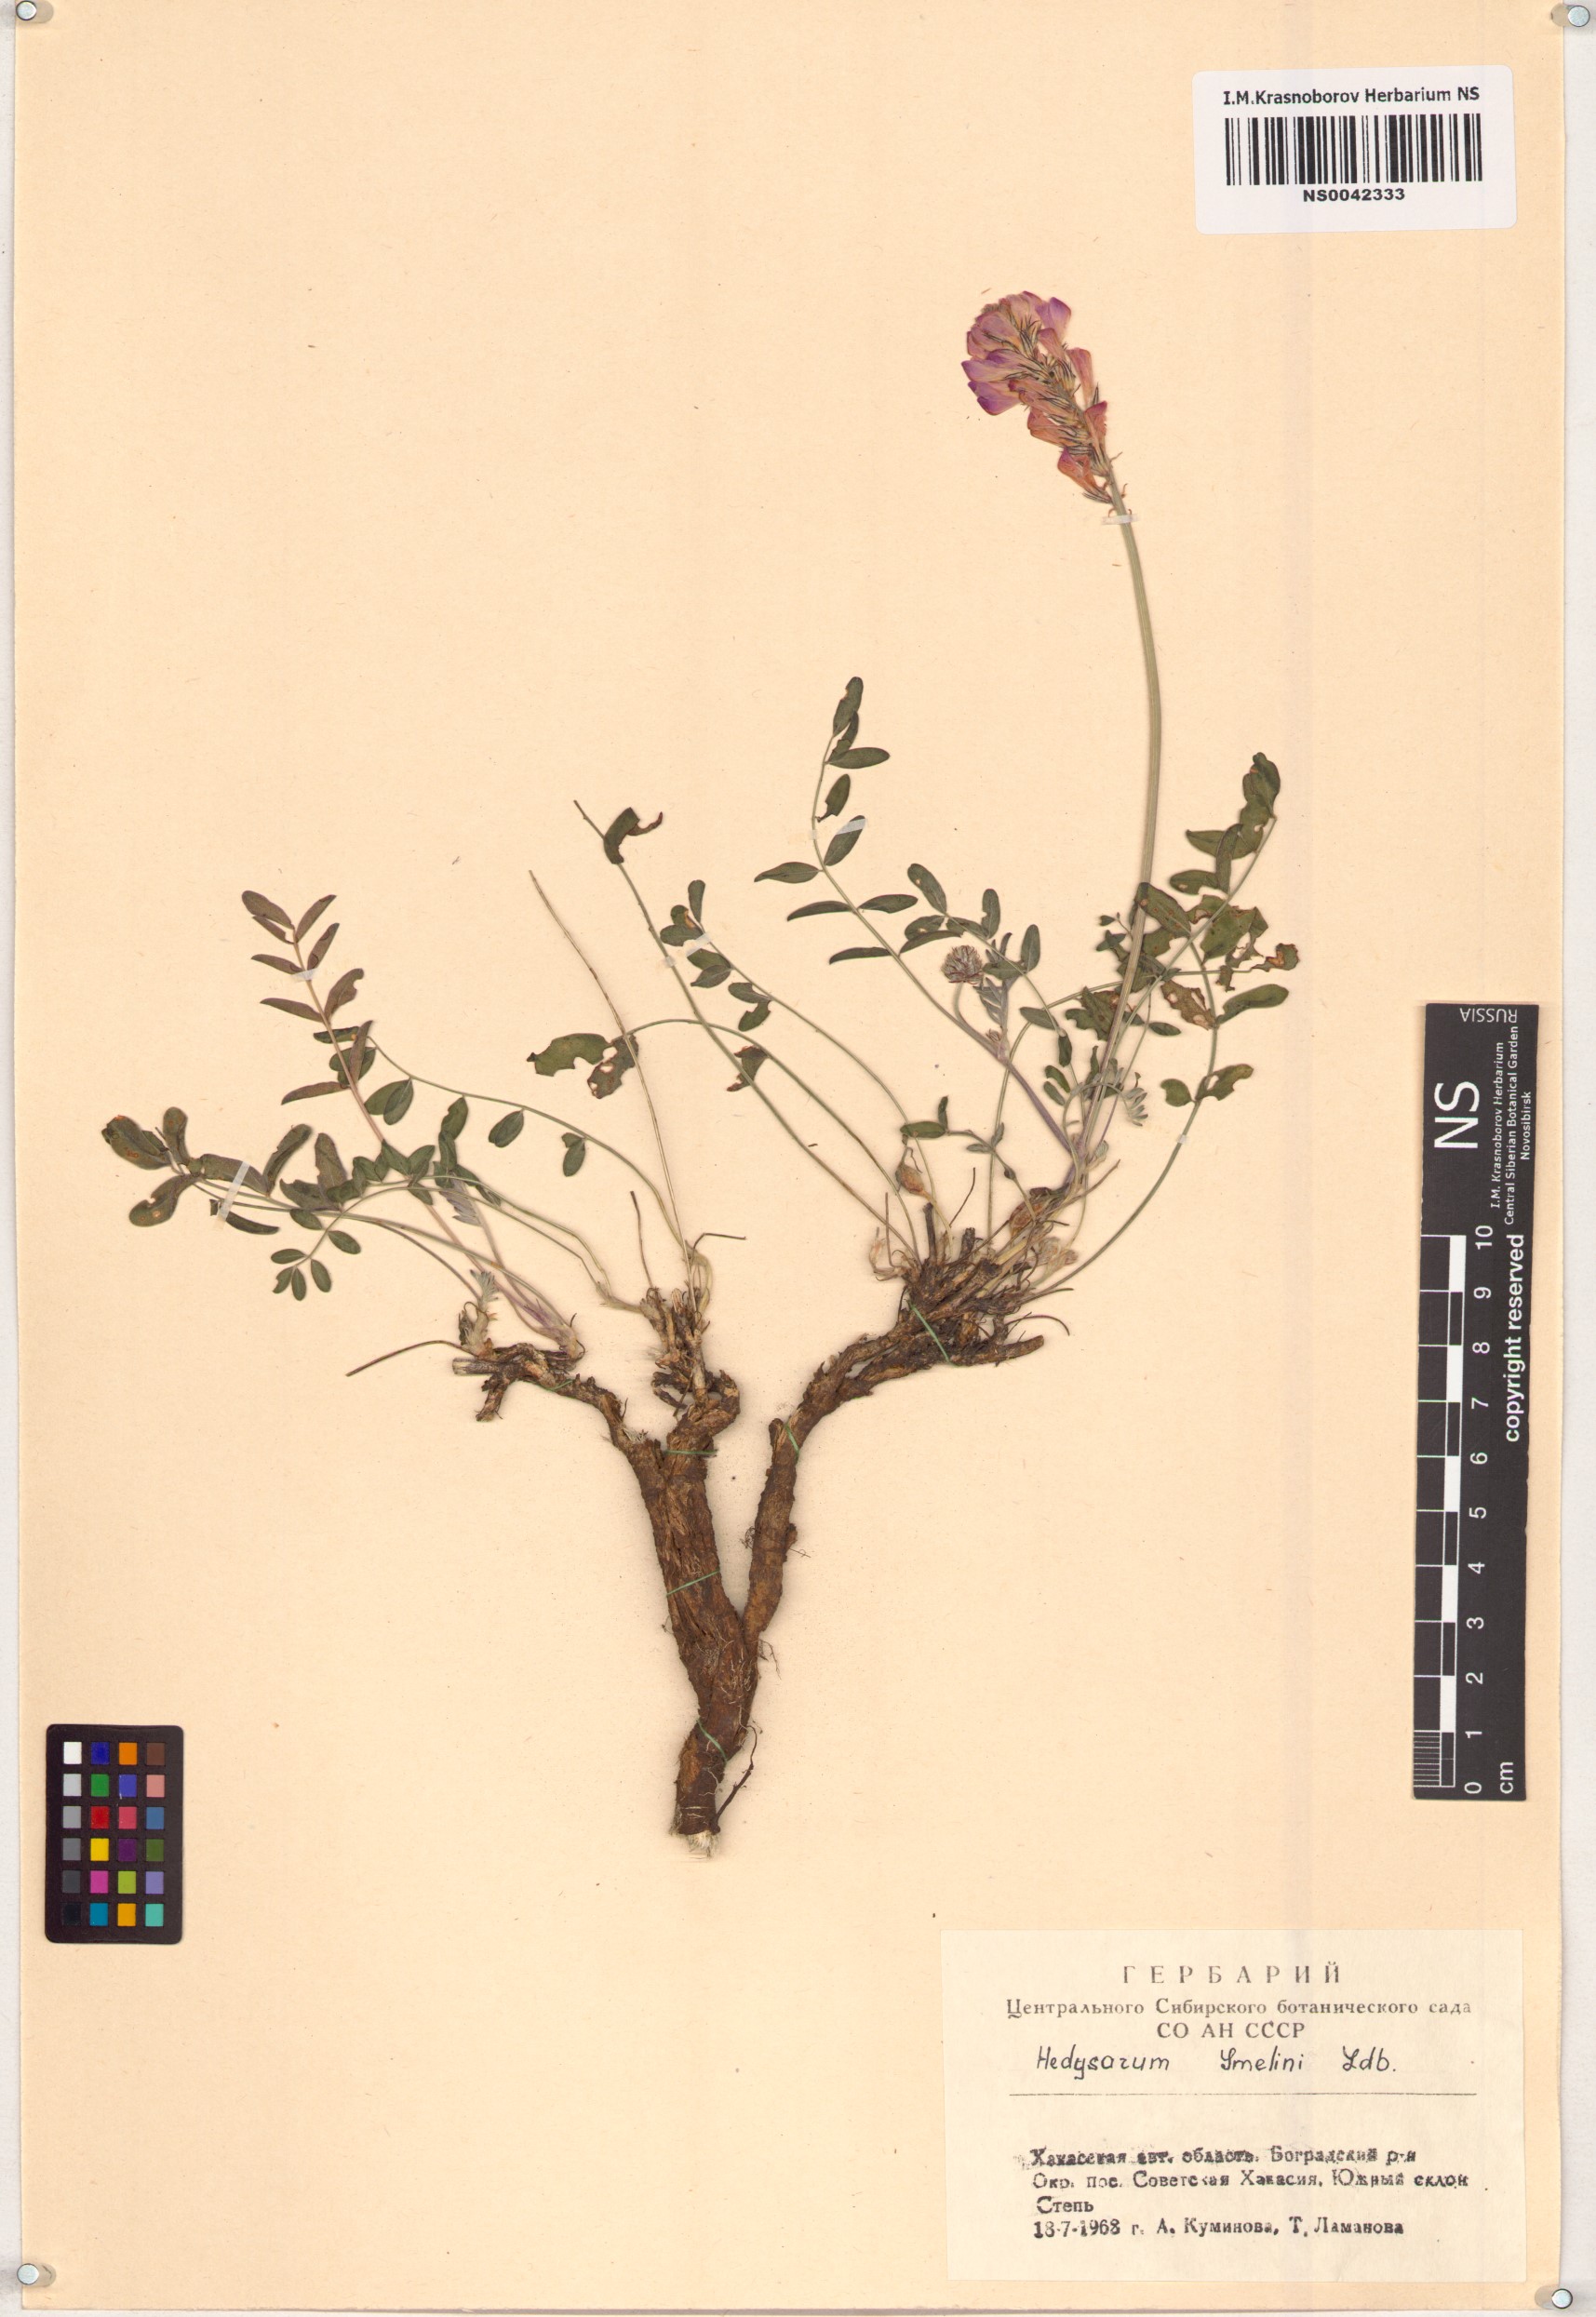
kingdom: Plantae
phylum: Tracheophyta
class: Magnoliopsida
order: Fabales
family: Fabaceae
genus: Hedysarum
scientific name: Hedysarum gmelinii
